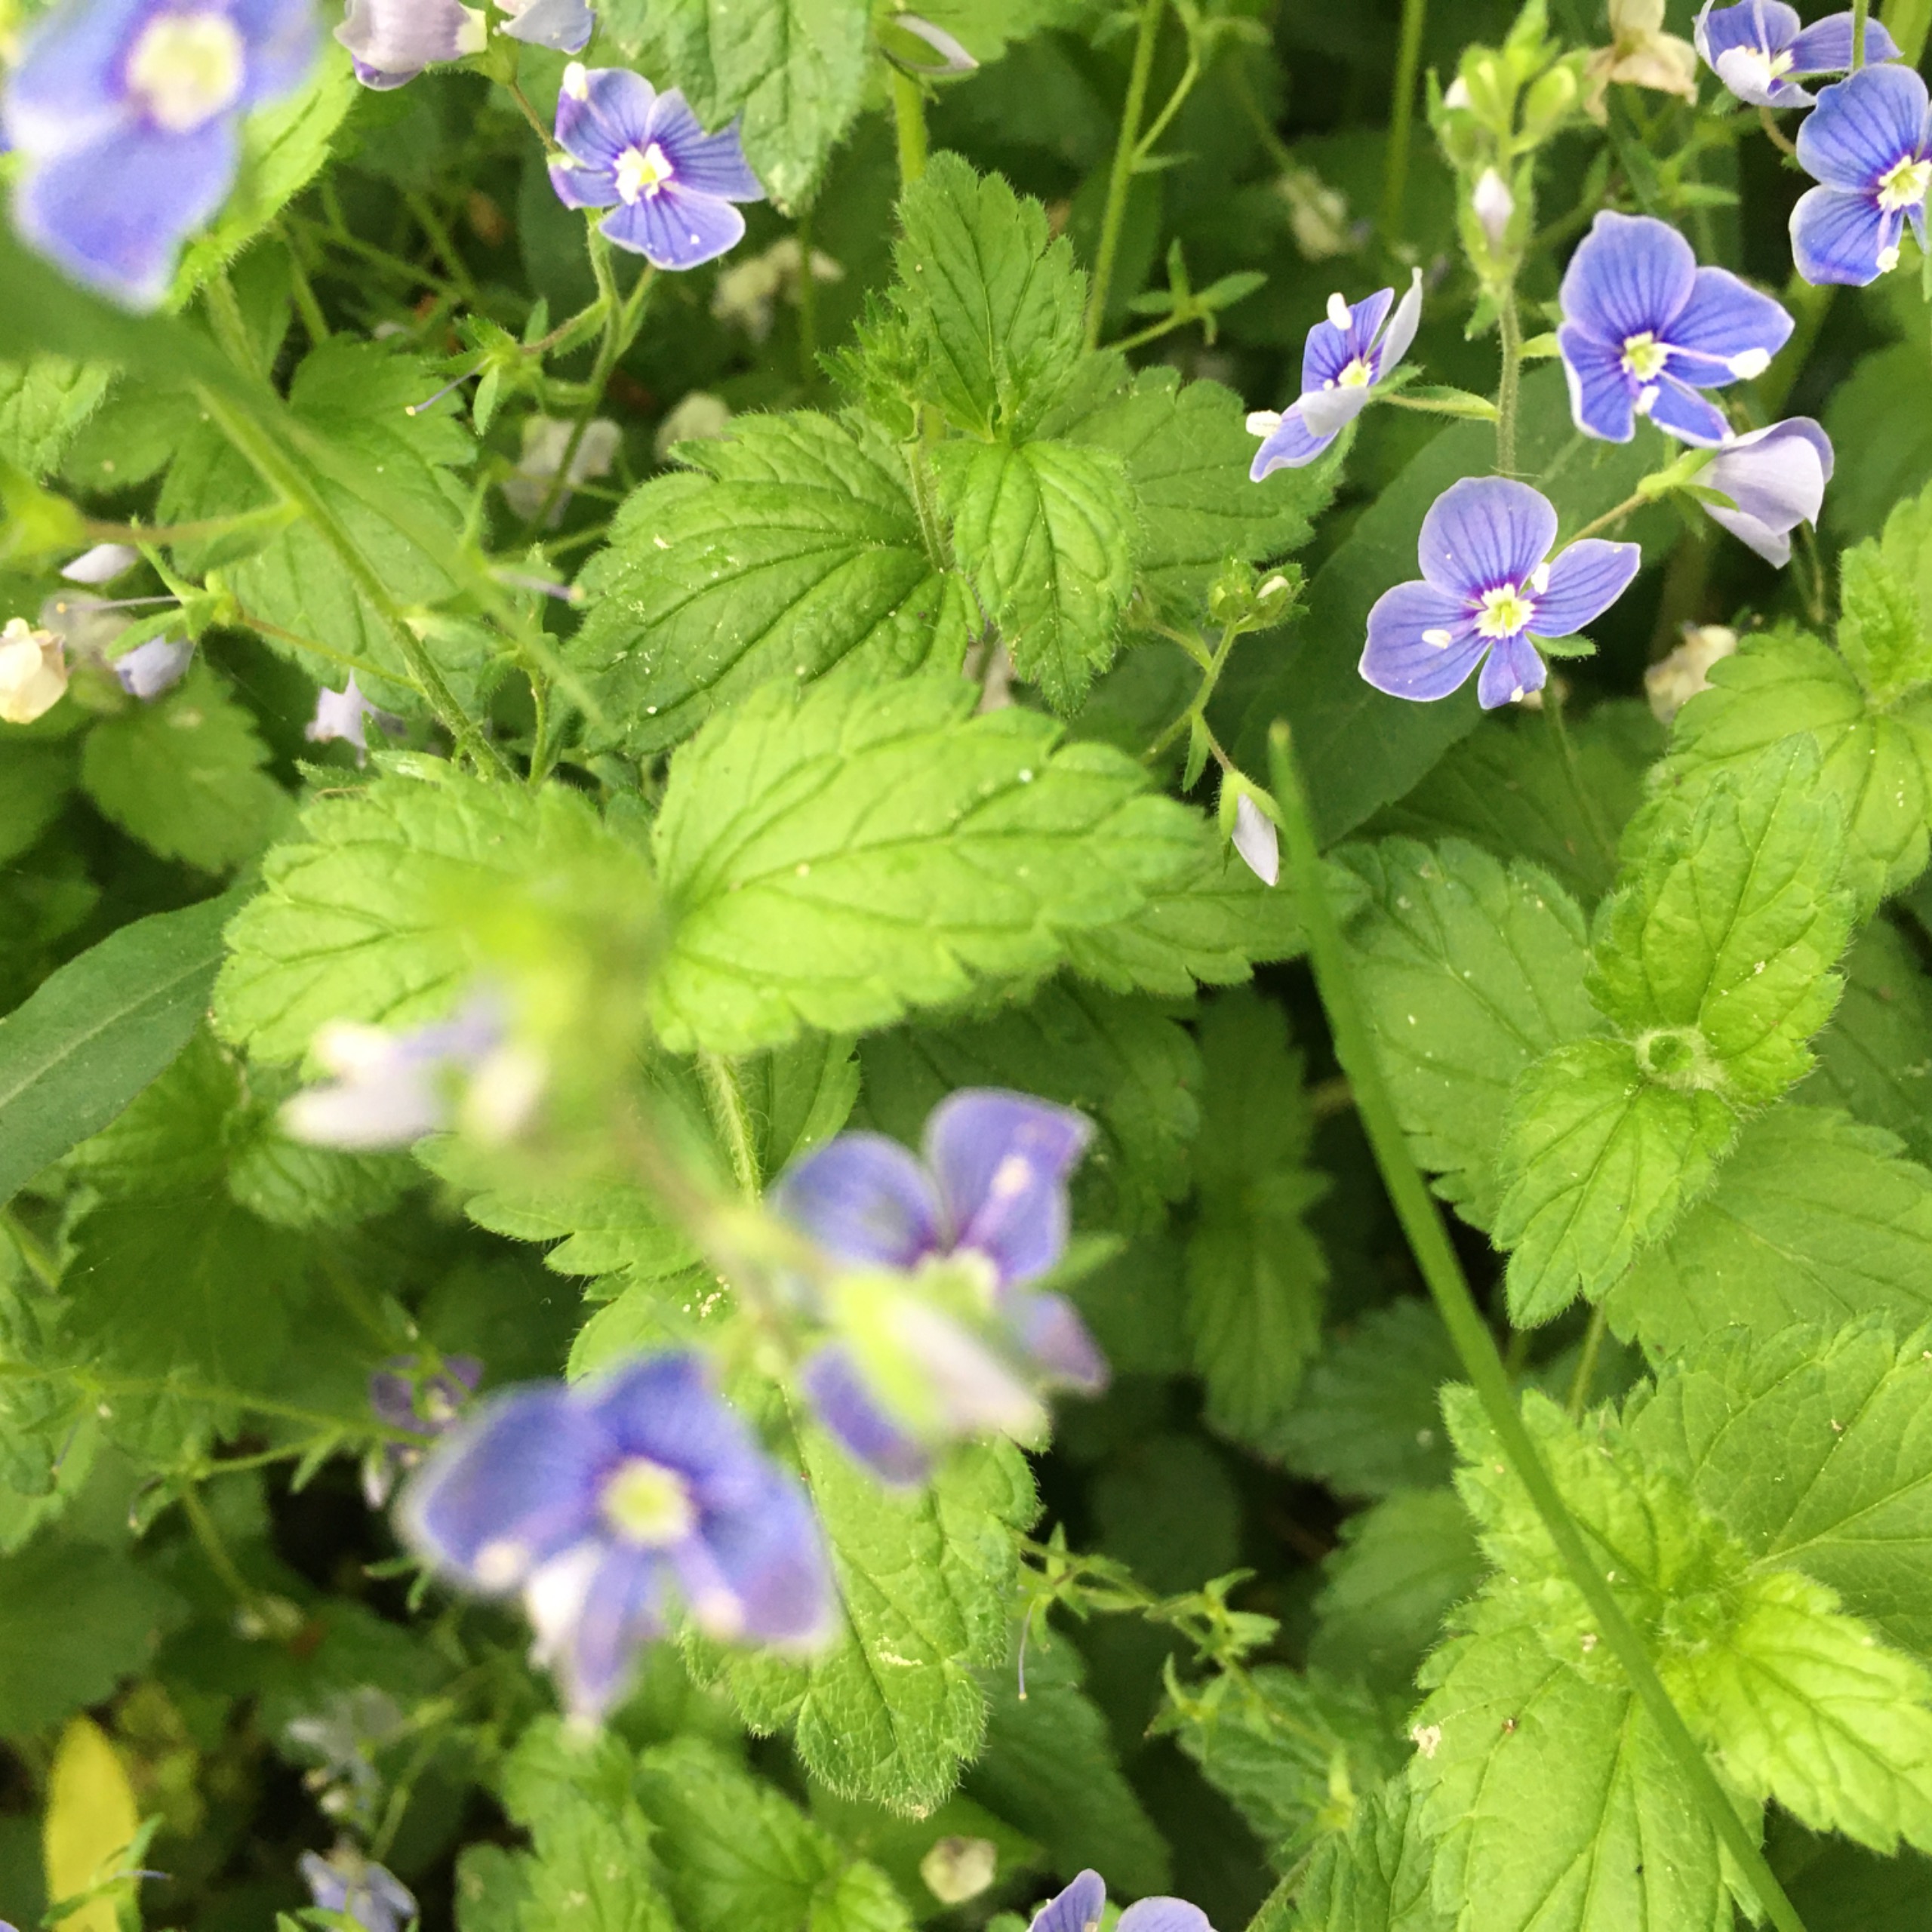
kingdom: Plantae
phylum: Tracheophyta
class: Magnoliopsida
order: Lamiales
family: Plantaginaceae
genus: Veronica
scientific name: Veronica chamaedrys
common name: Tveskægget ærenpris
